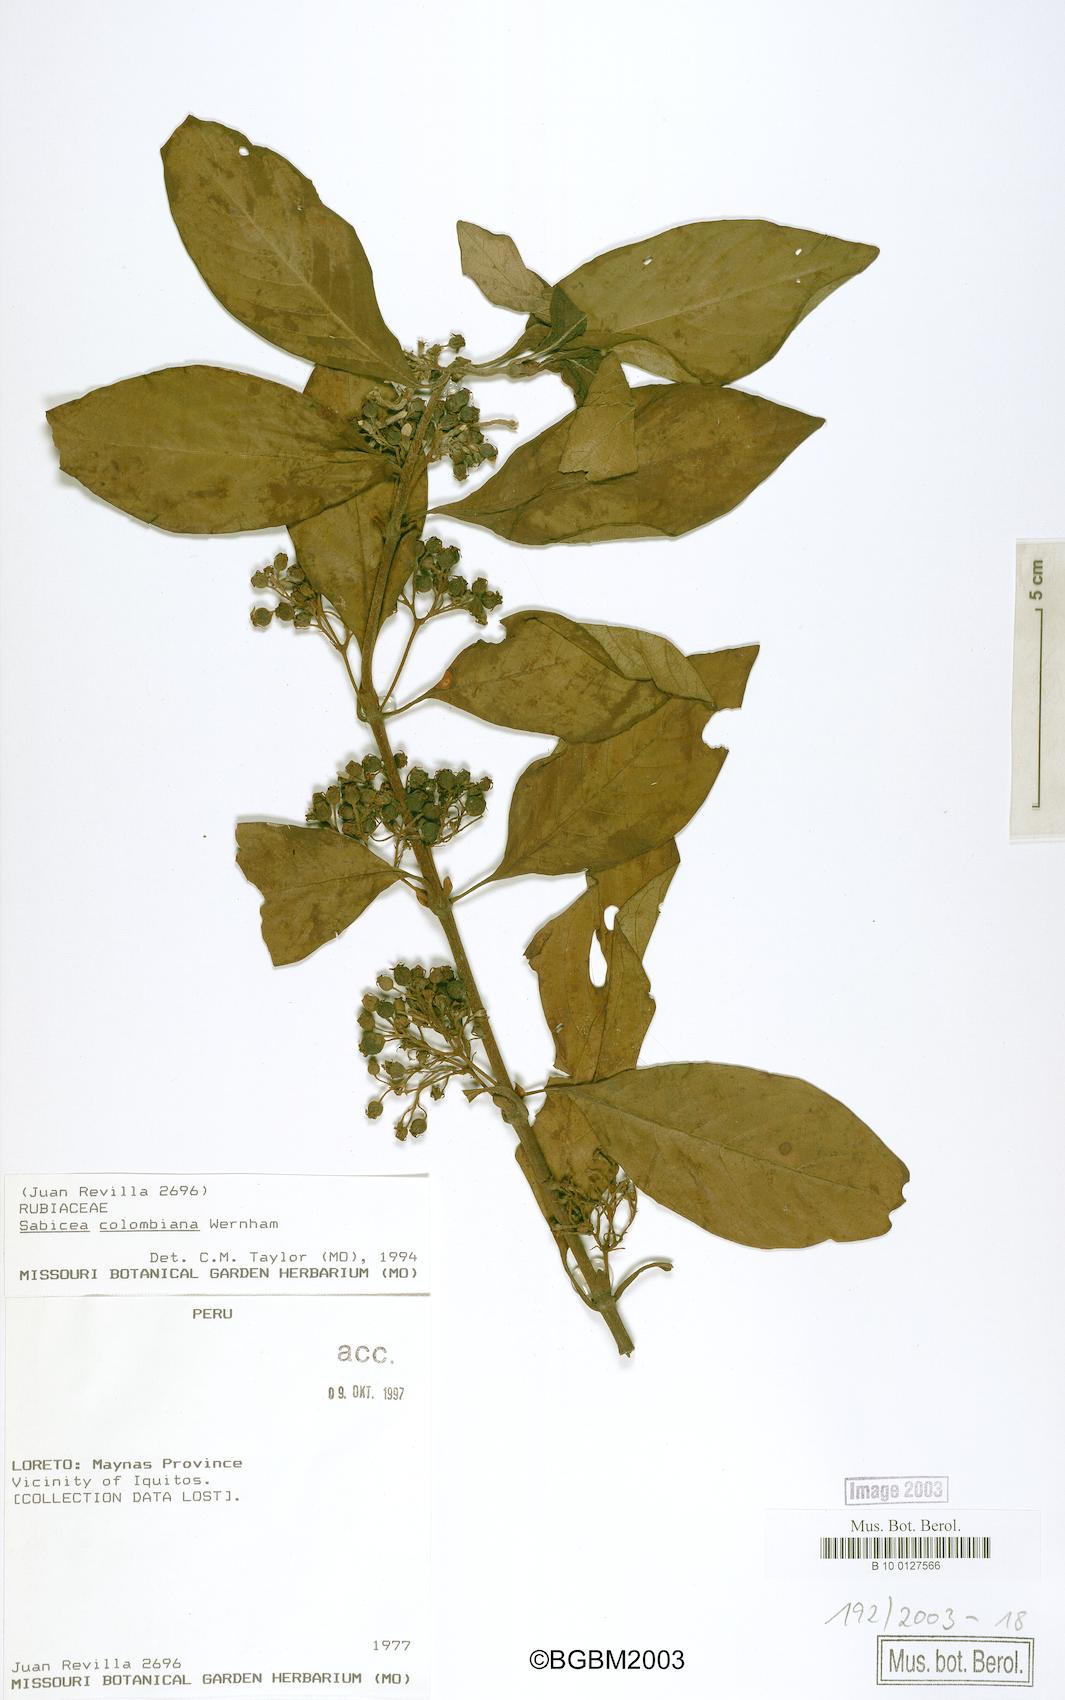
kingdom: Plantae
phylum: Tracheophyta
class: Magnoliopsida
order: Gentianales
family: Rubiaceae
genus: Sabicea
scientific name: Sabicea panamensis
